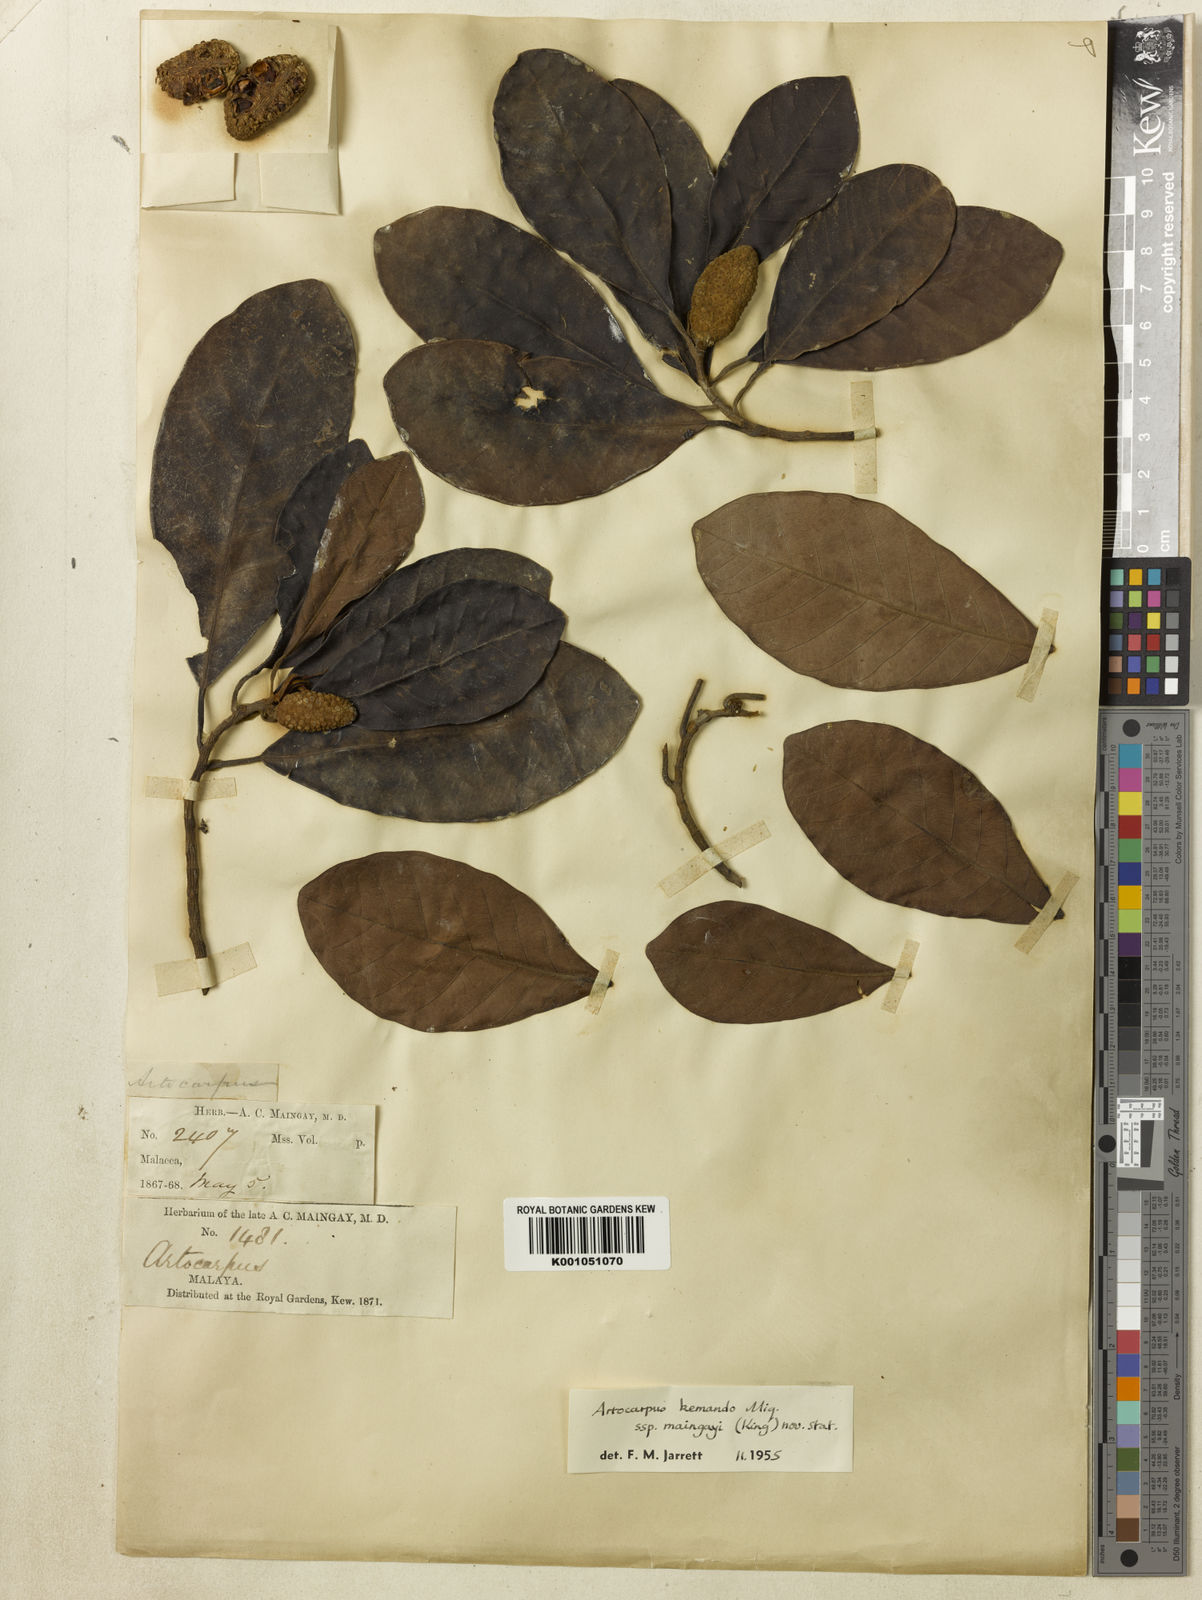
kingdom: Plantae
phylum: Tracheophyta
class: Magnoliopsida
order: Rosales
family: Moraceae
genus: Artocarpus
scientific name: Artocarpus kemando
